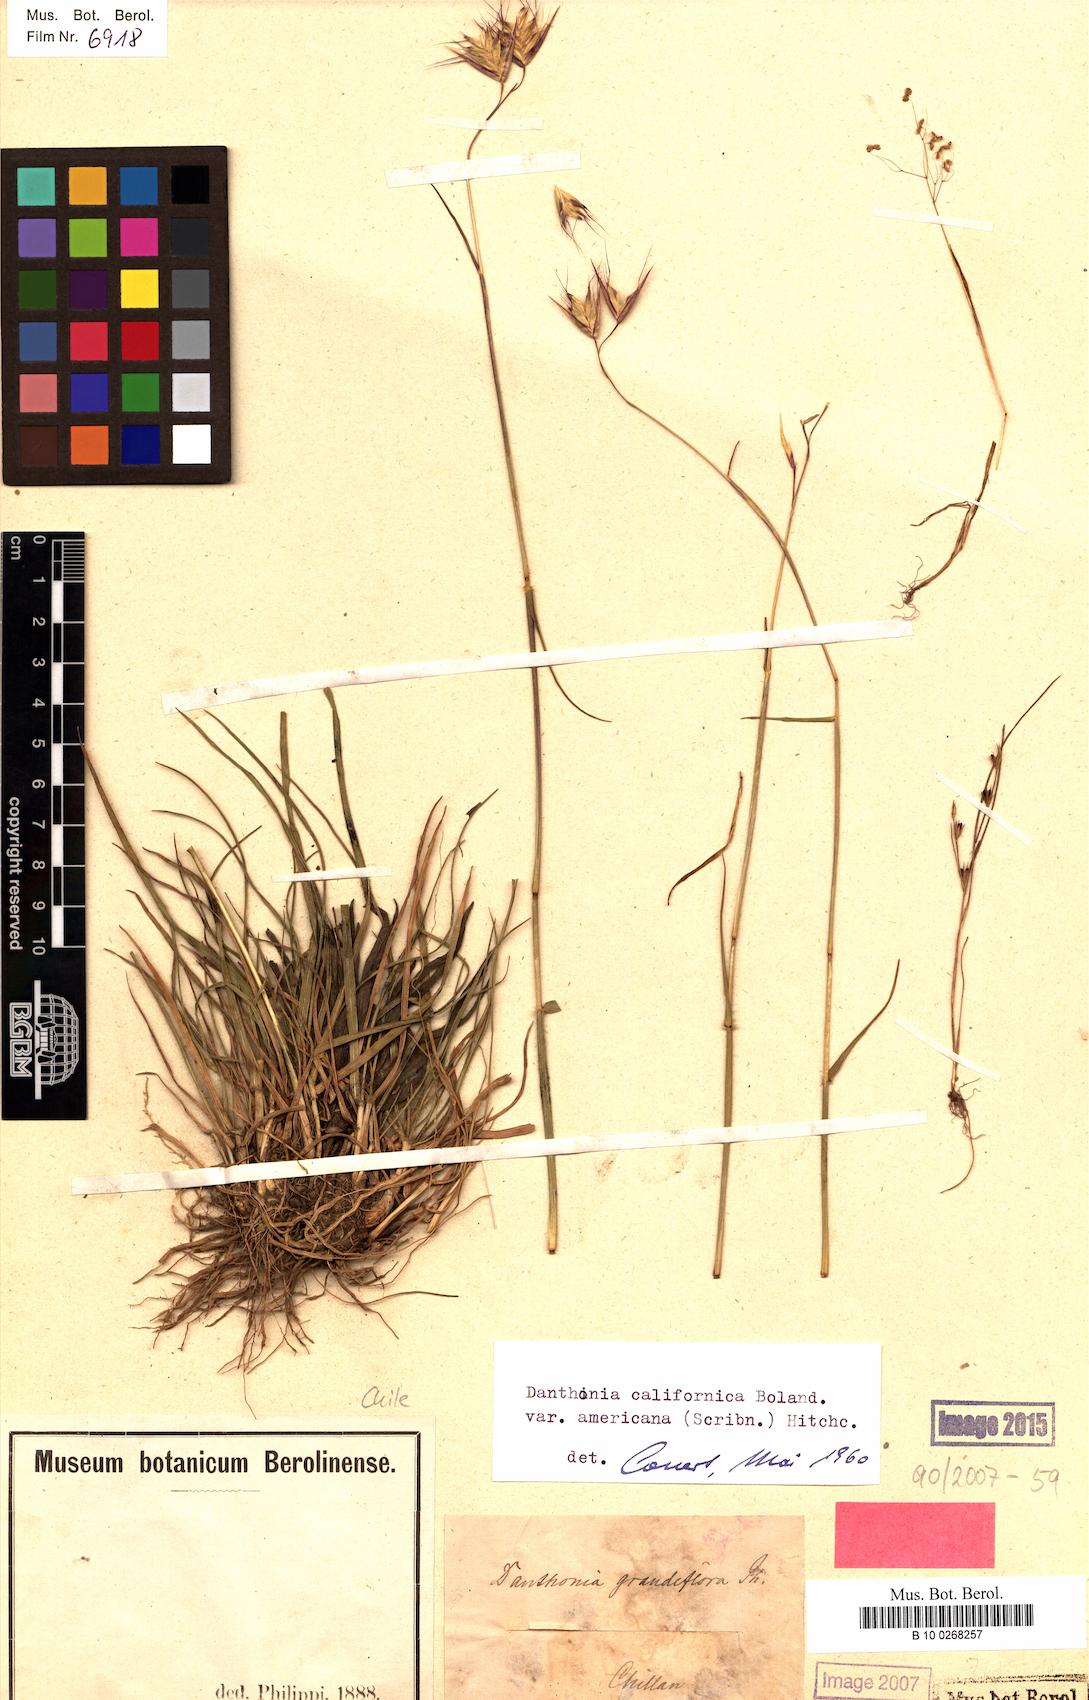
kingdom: Plantae
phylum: Tracheophyta
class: Liliopsida
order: Poales
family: Poaceae
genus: Danthonia
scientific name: Danthonia californica
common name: California oat grass
